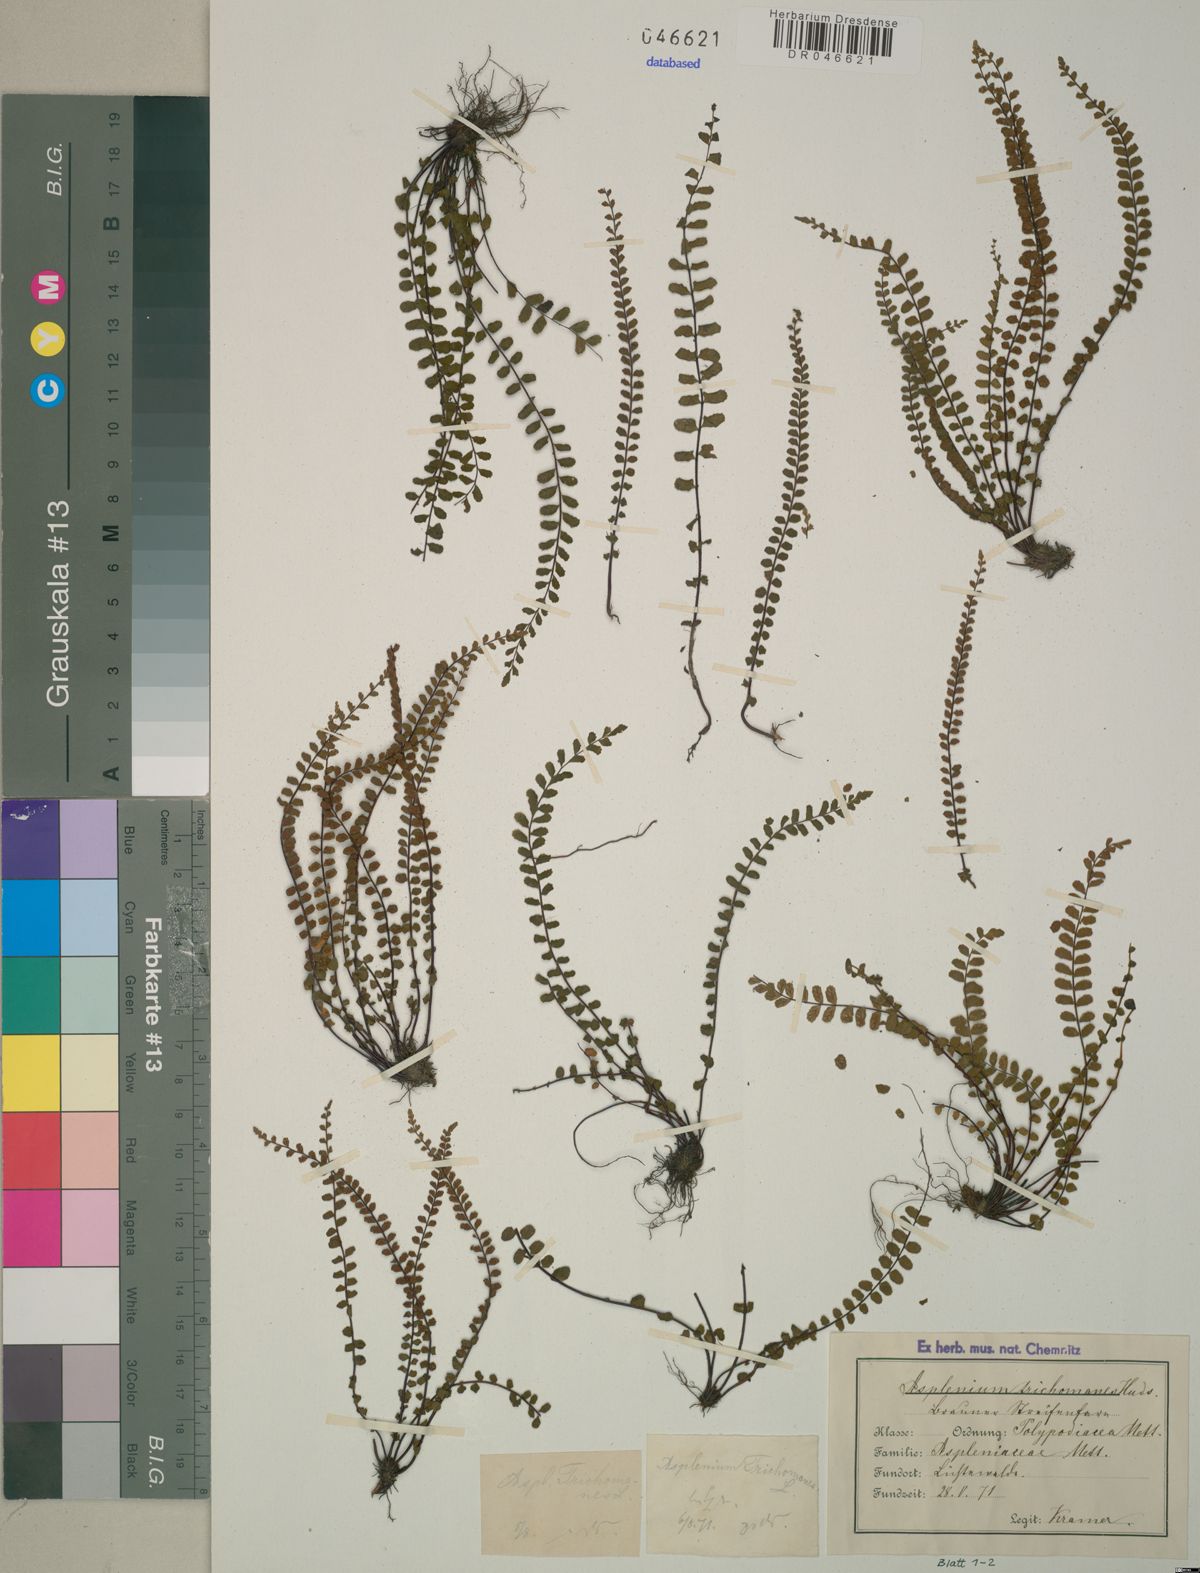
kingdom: Plantae
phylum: Tracheophyta
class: Polypodiopsida
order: Polypodiales
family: Aspleniaceae
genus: Asplenium
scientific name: Asplenium trichomanes
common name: Maidenhair spleenwort
